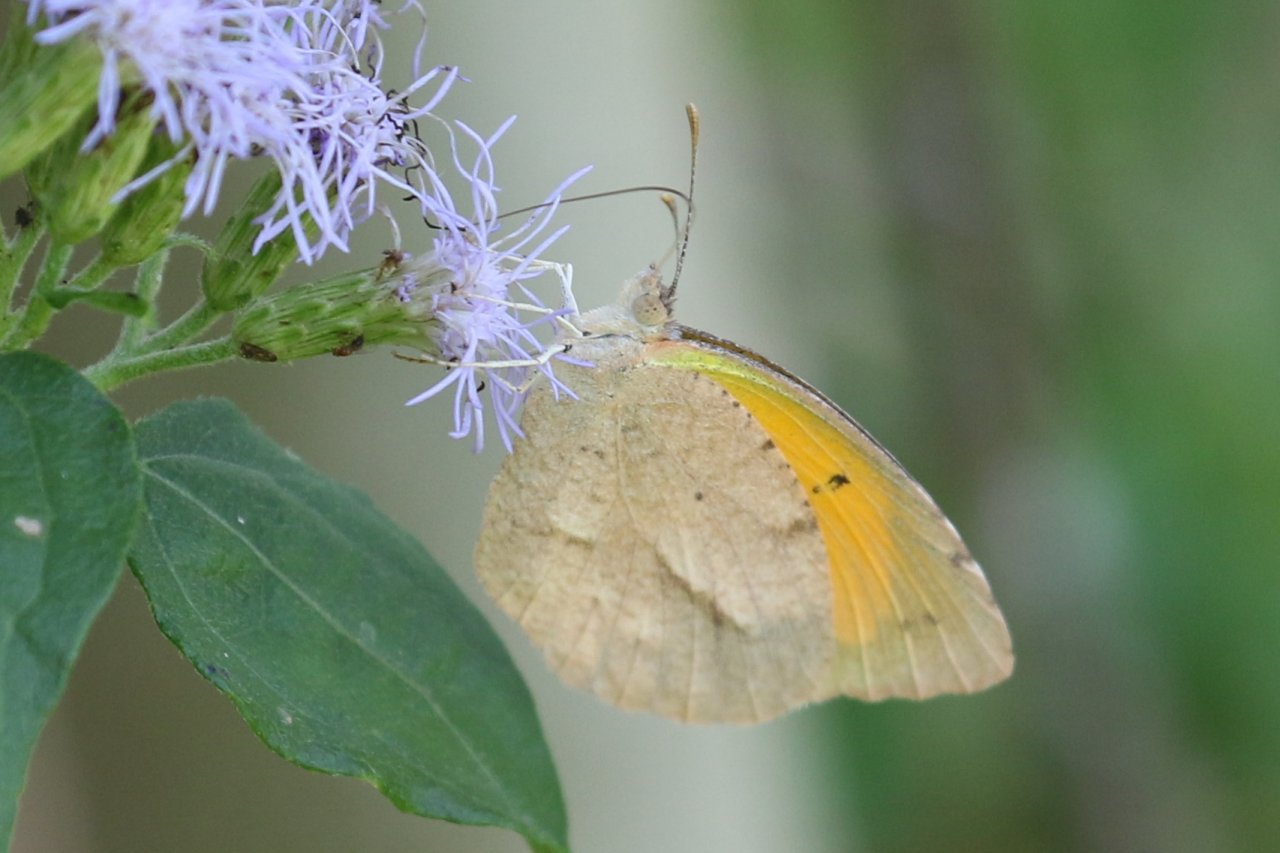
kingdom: Animalia
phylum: Arthropoda
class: Insecta
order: Lepidoptera
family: Pieridae
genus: Abaeis
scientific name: Abaeis nicippe
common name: Sleepy Orange
